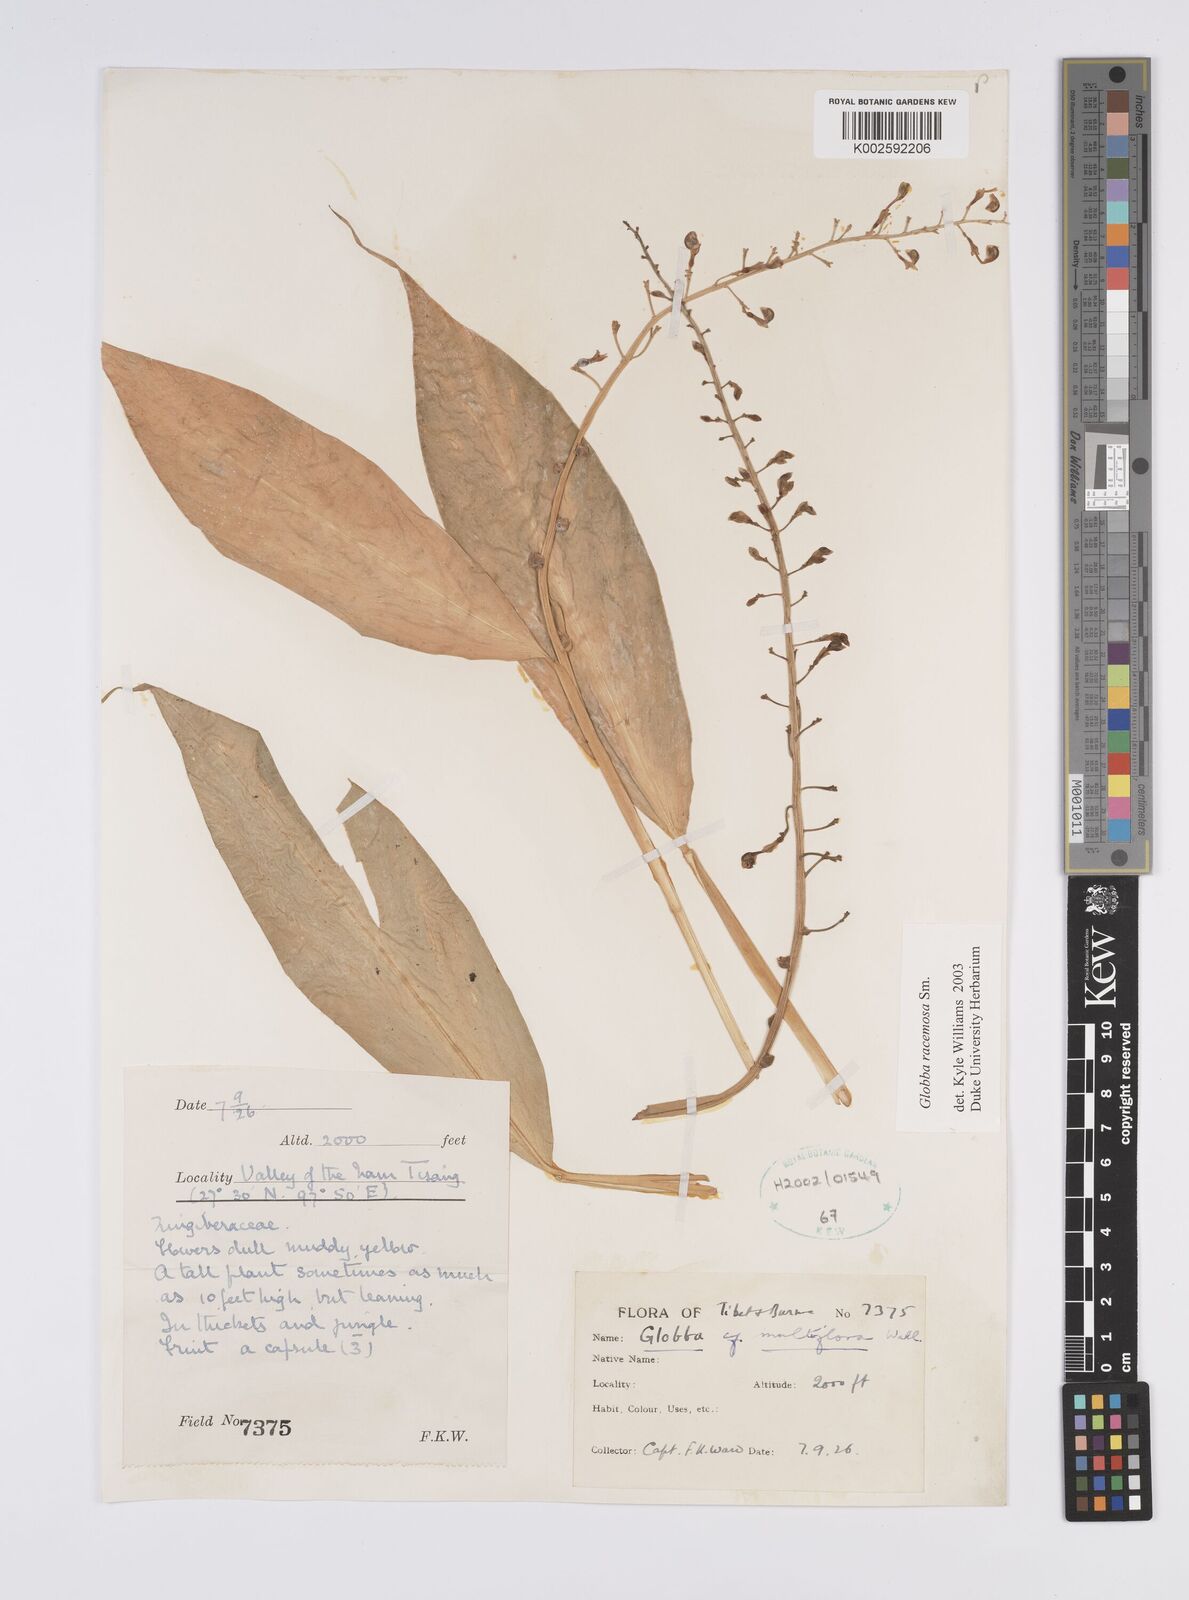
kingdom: Plantae
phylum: Tracheophyta
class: Liliopsida
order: Zingiberales
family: Zingiberaceae
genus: Globba
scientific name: Globba racemosa
